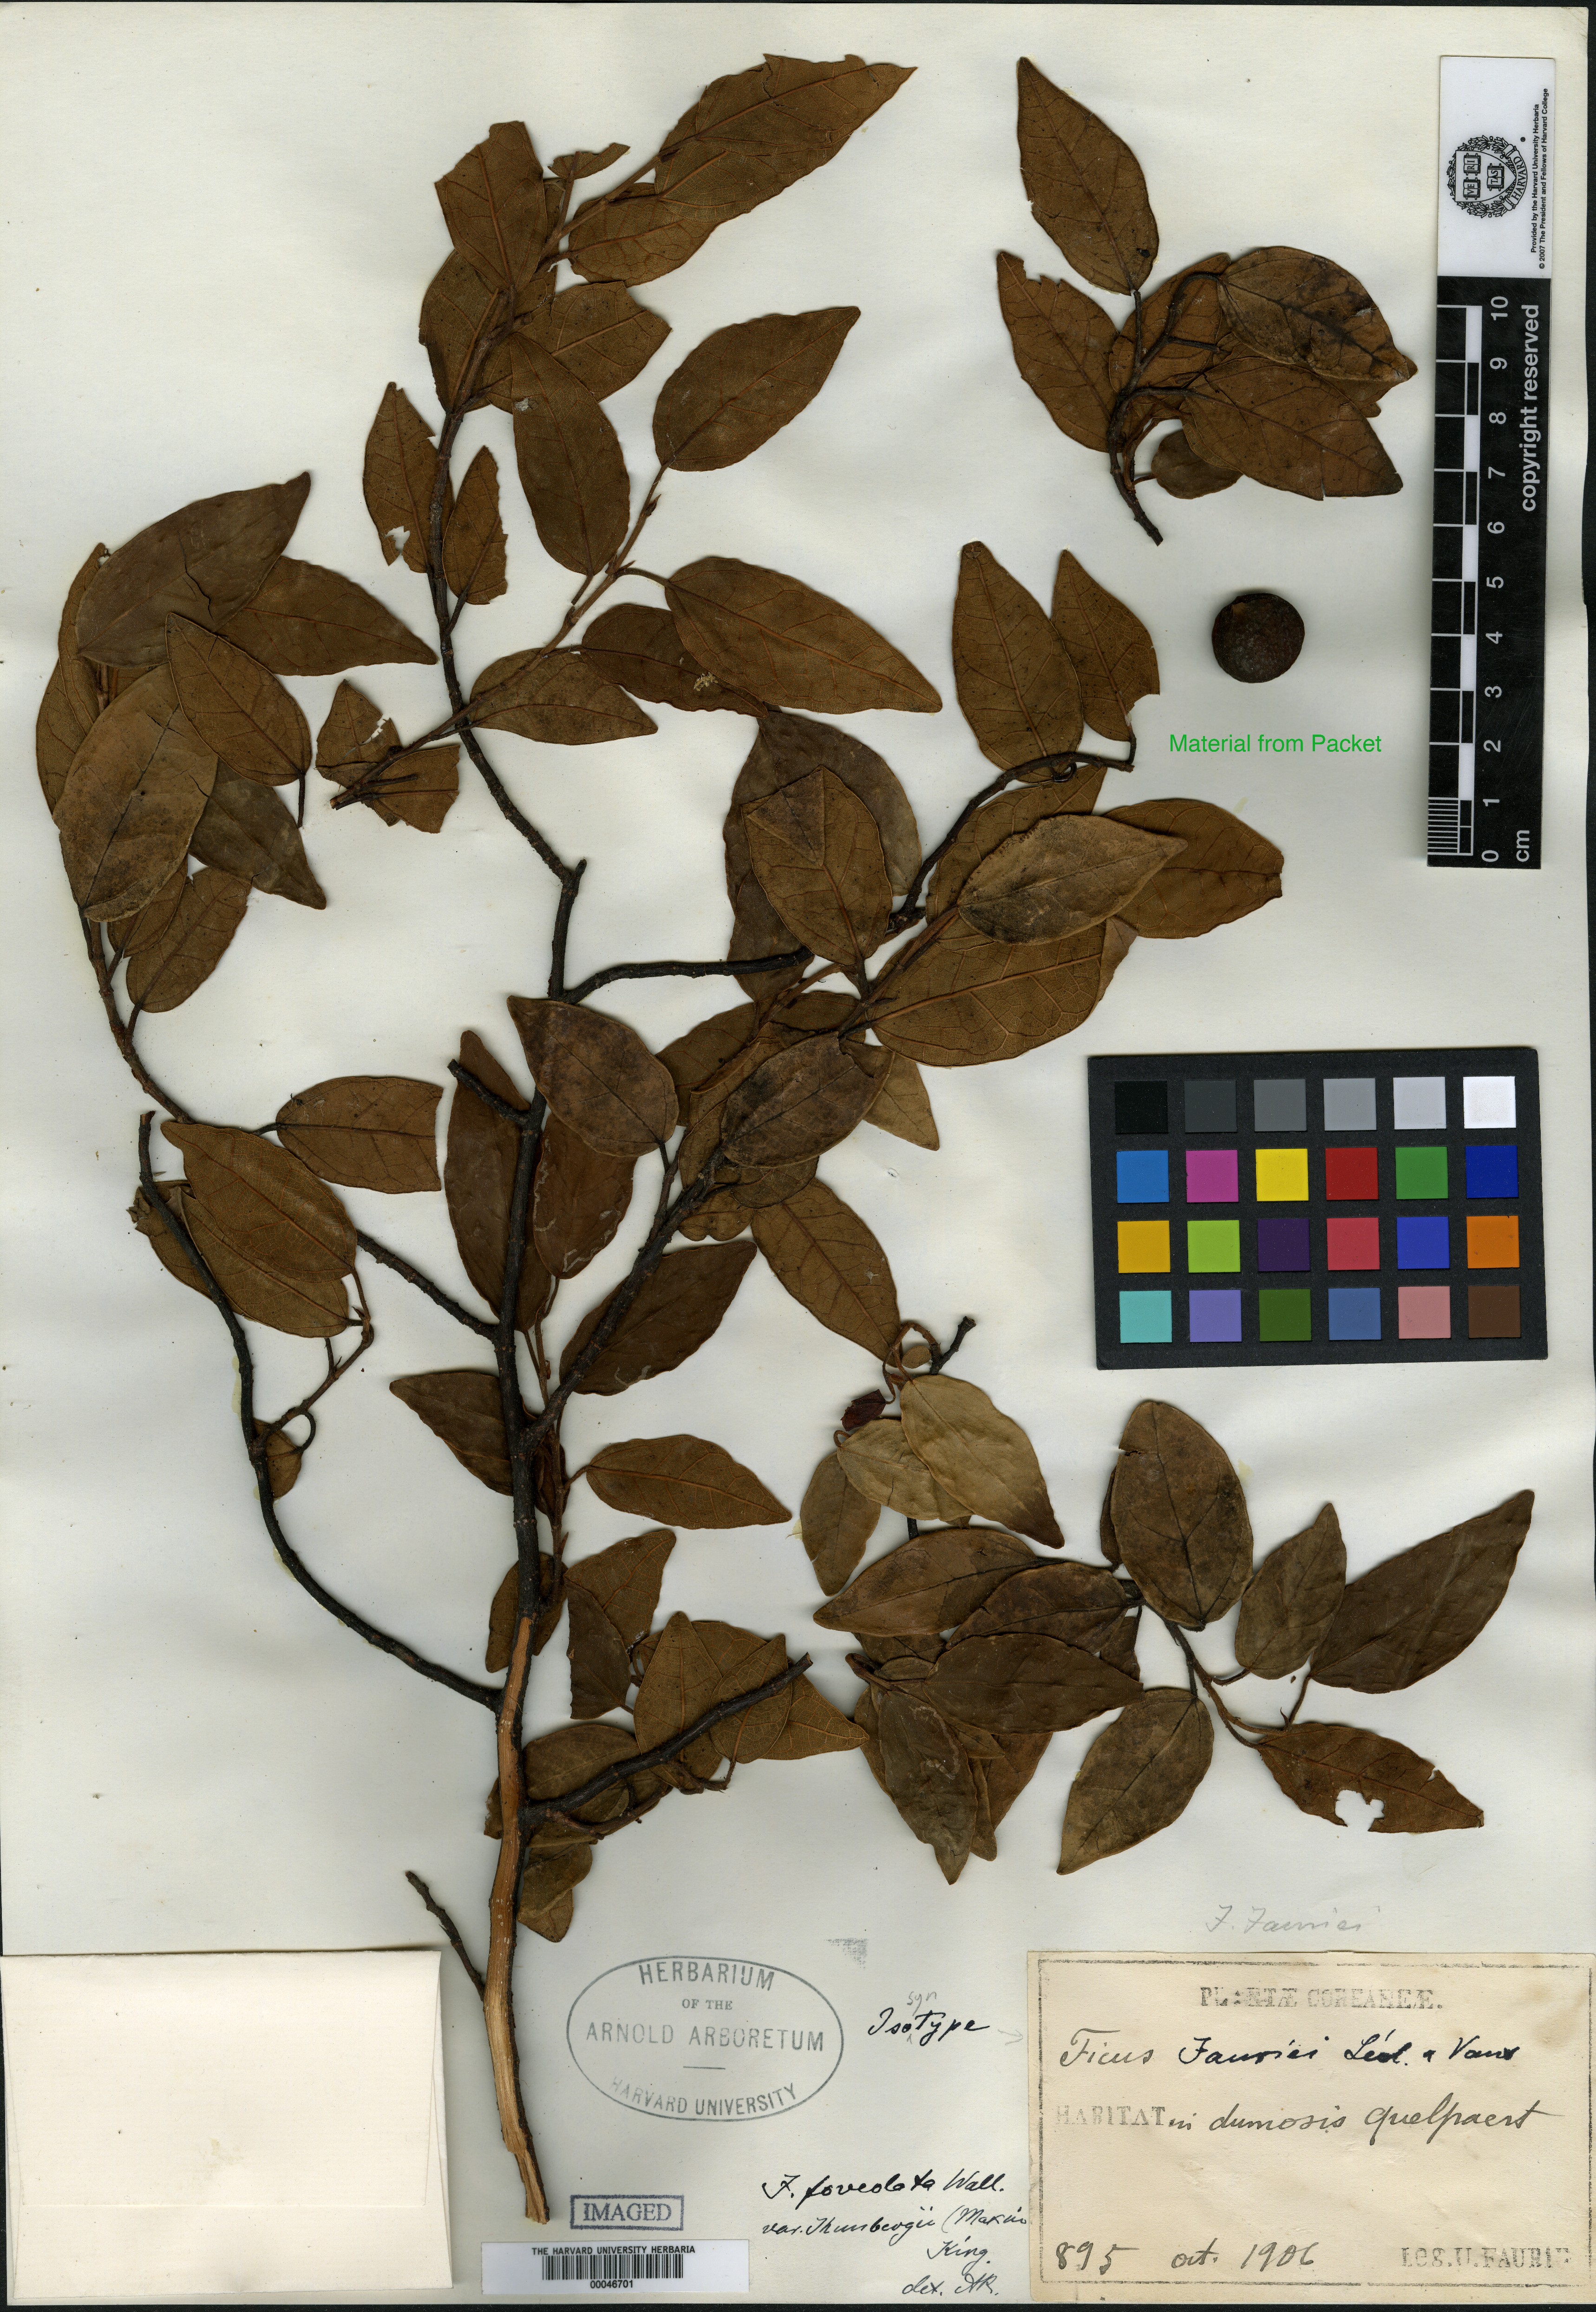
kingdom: Plantae
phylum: Tracheophyta
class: Magnoliopsida
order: Rosales
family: Moraceae
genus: Ficus
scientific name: Ficus sarmentosa
